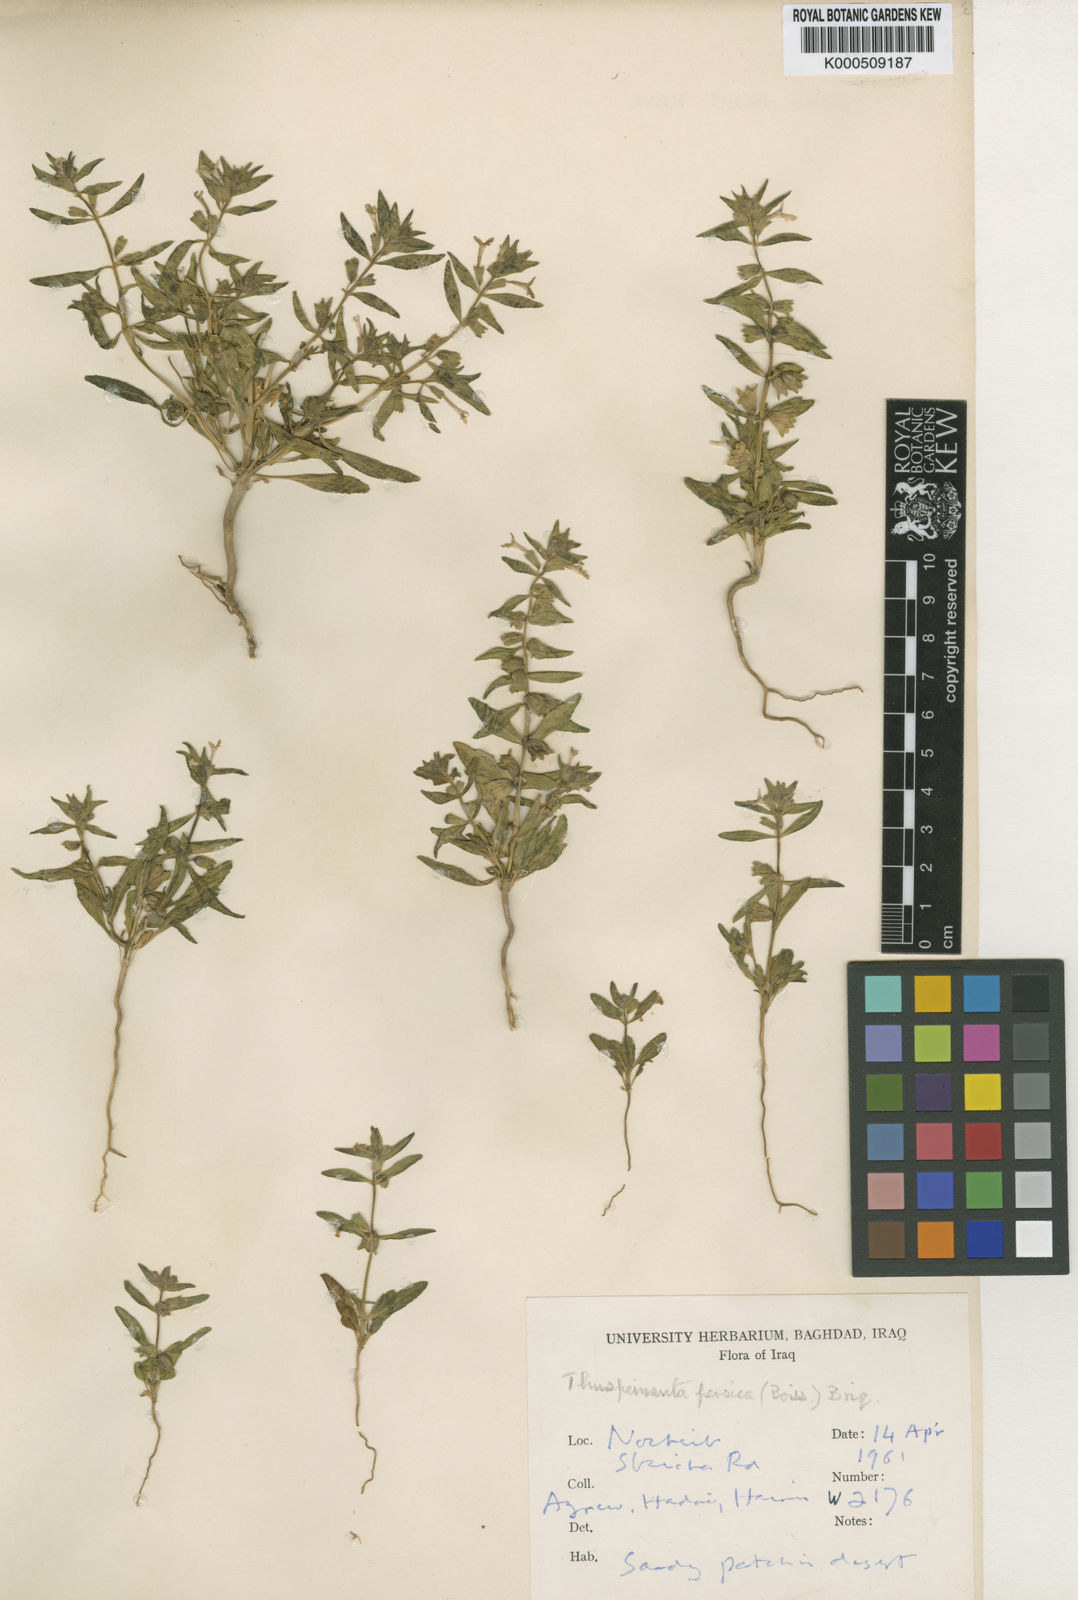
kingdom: Plantae
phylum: Tracheophyta
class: Magnoliopsida
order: Lamiales
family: Lamiaceae
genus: Thuspeinanta
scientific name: Thuspeinanta persica
